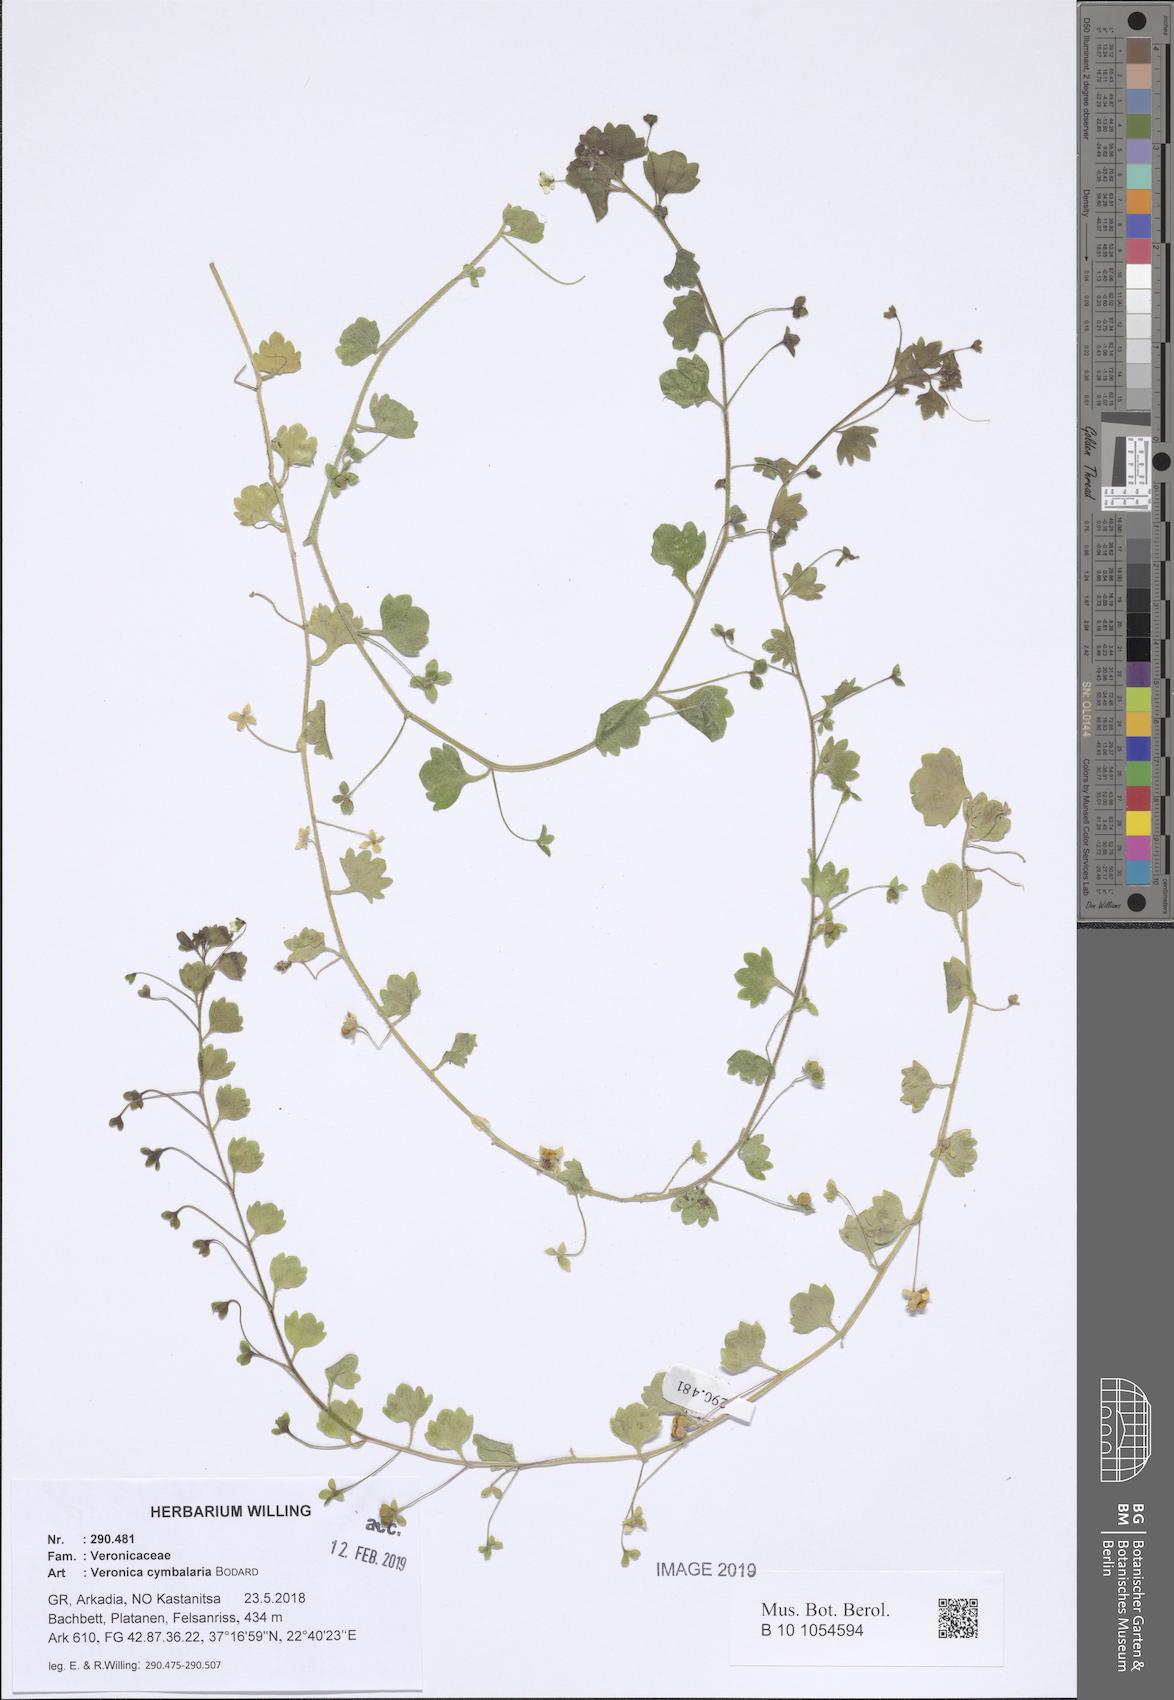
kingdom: Plantae
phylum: Tracheophyta
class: Magnoliopsida
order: Lamiales
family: Plantaginaceae
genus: Veronica
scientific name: Veronica cymbalaria
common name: Pale speedwell
